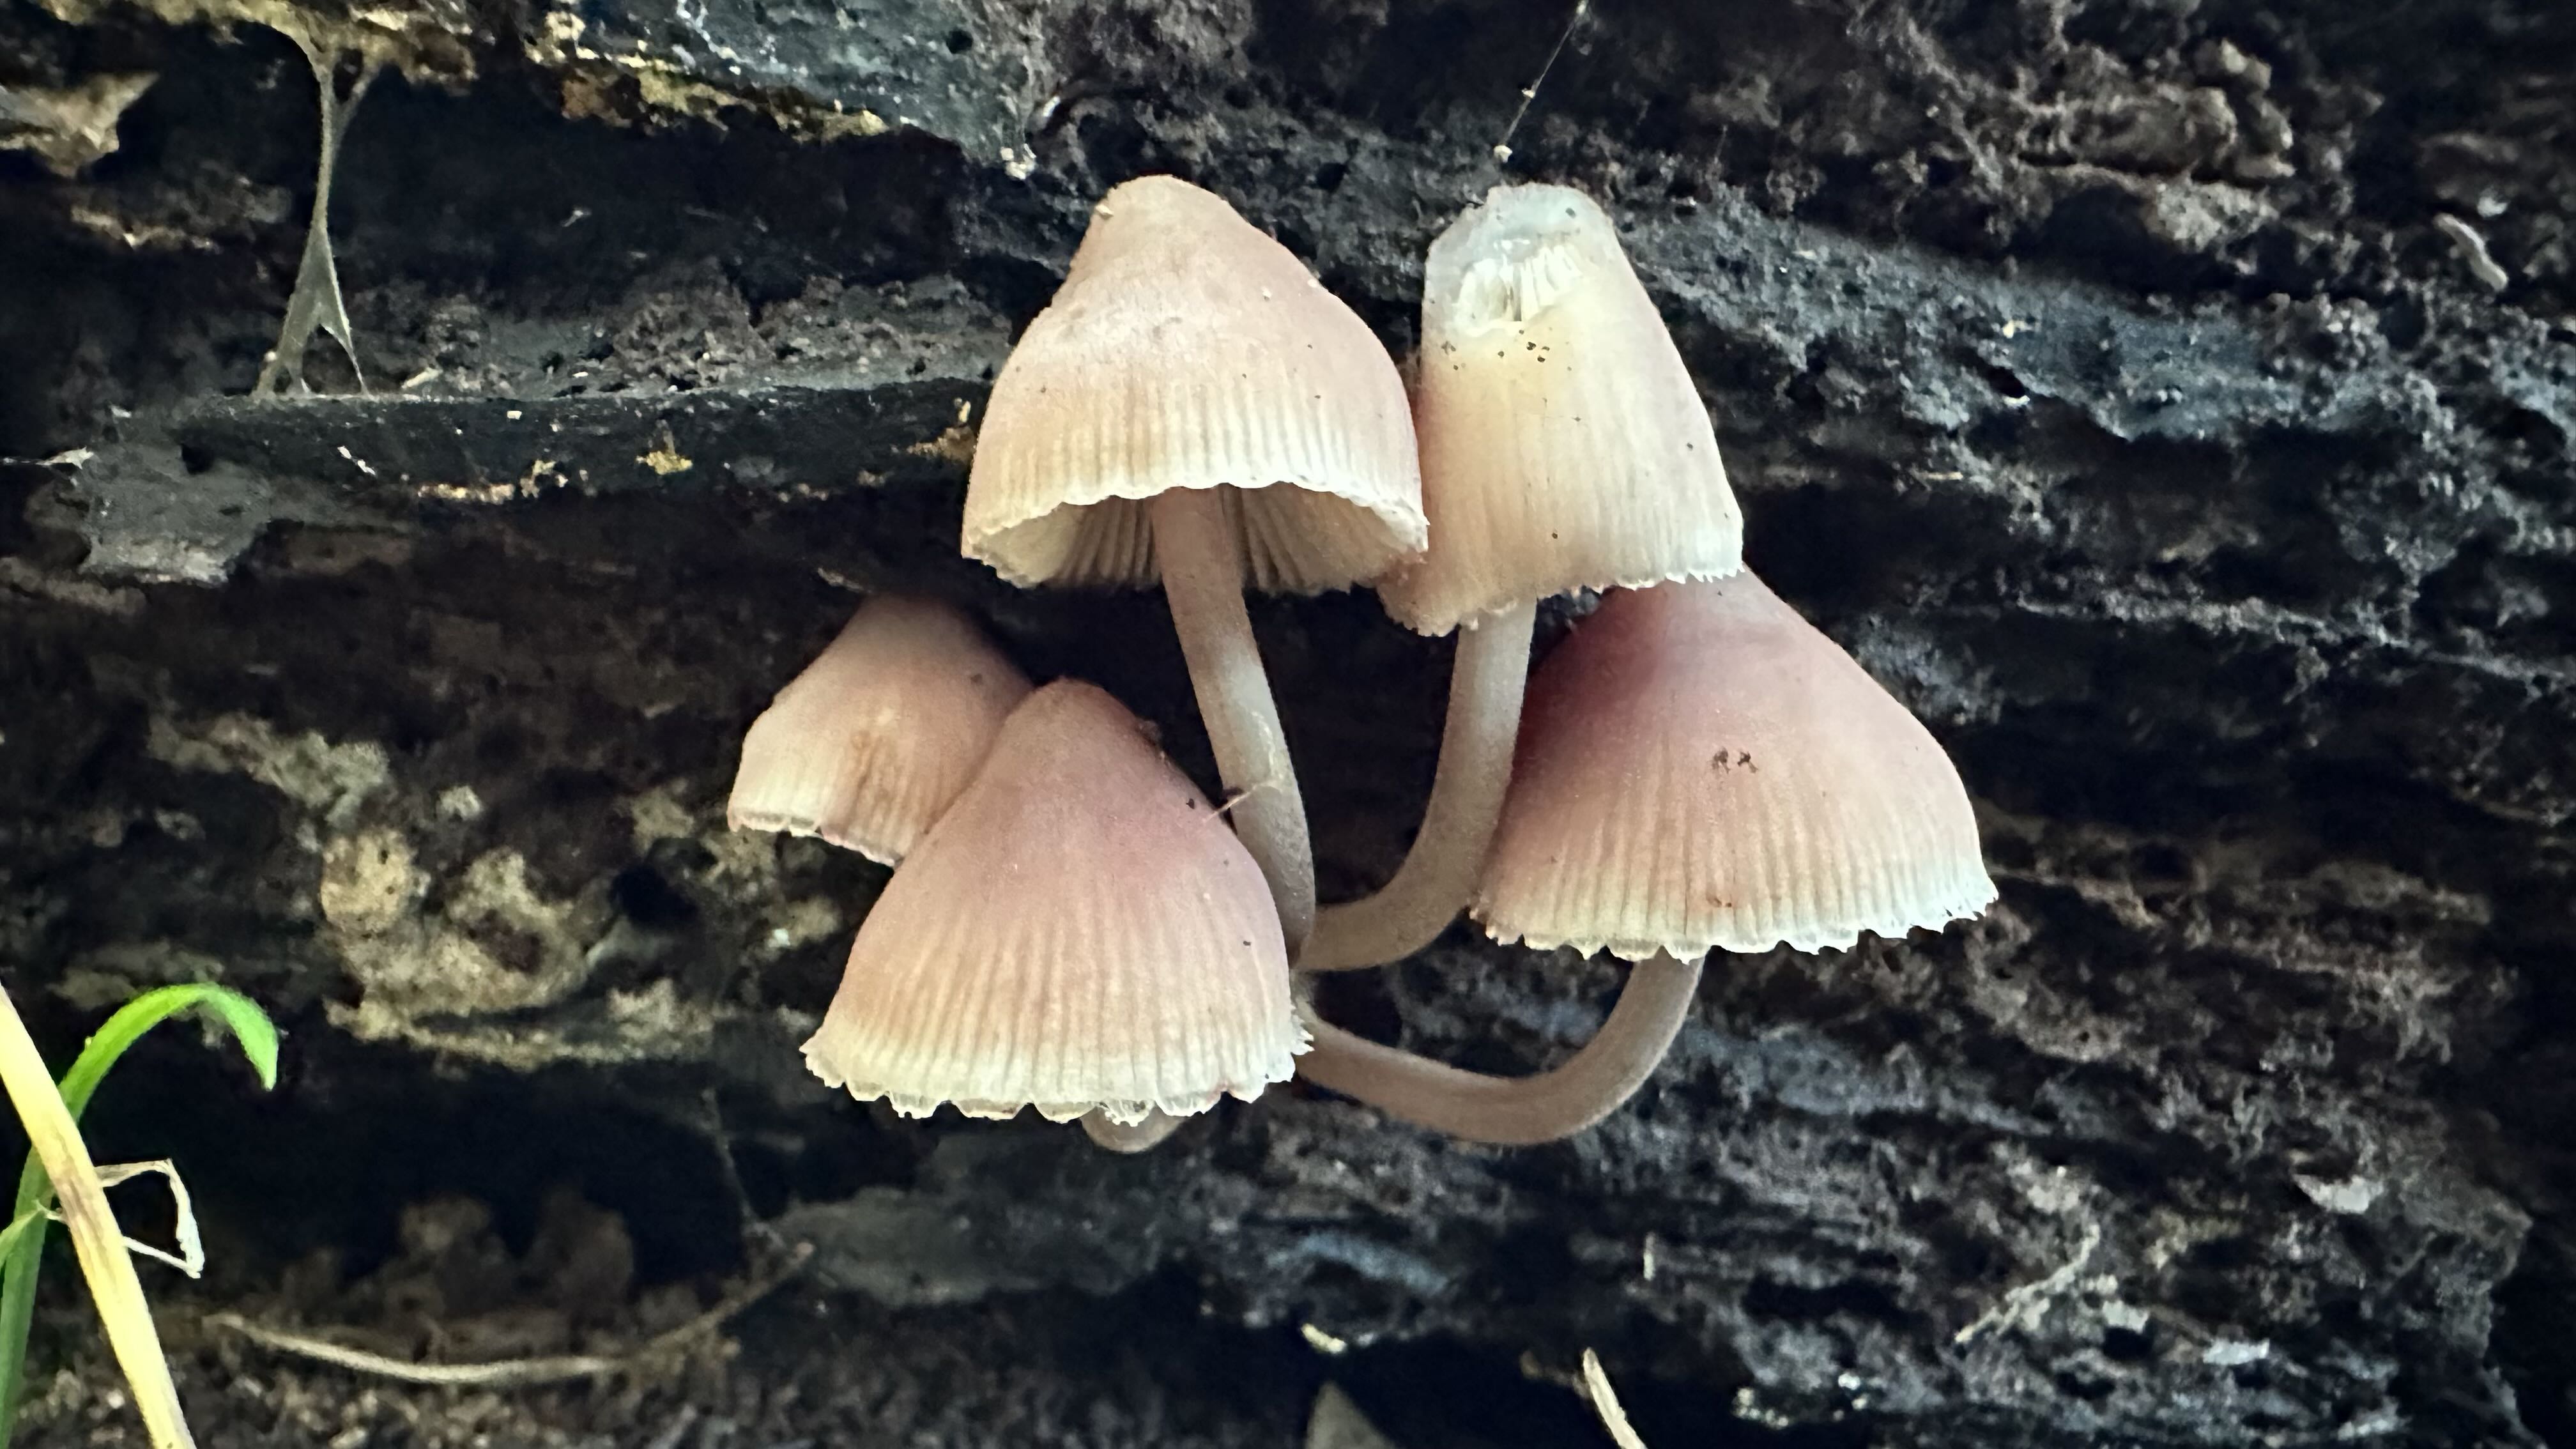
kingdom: Fungi
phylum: Basidiomycota
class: Agaricomycetes
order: Agaricales
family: Mycenaceae
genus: Mycena
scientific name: Mycena haematopus
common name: blødende huesvamp
